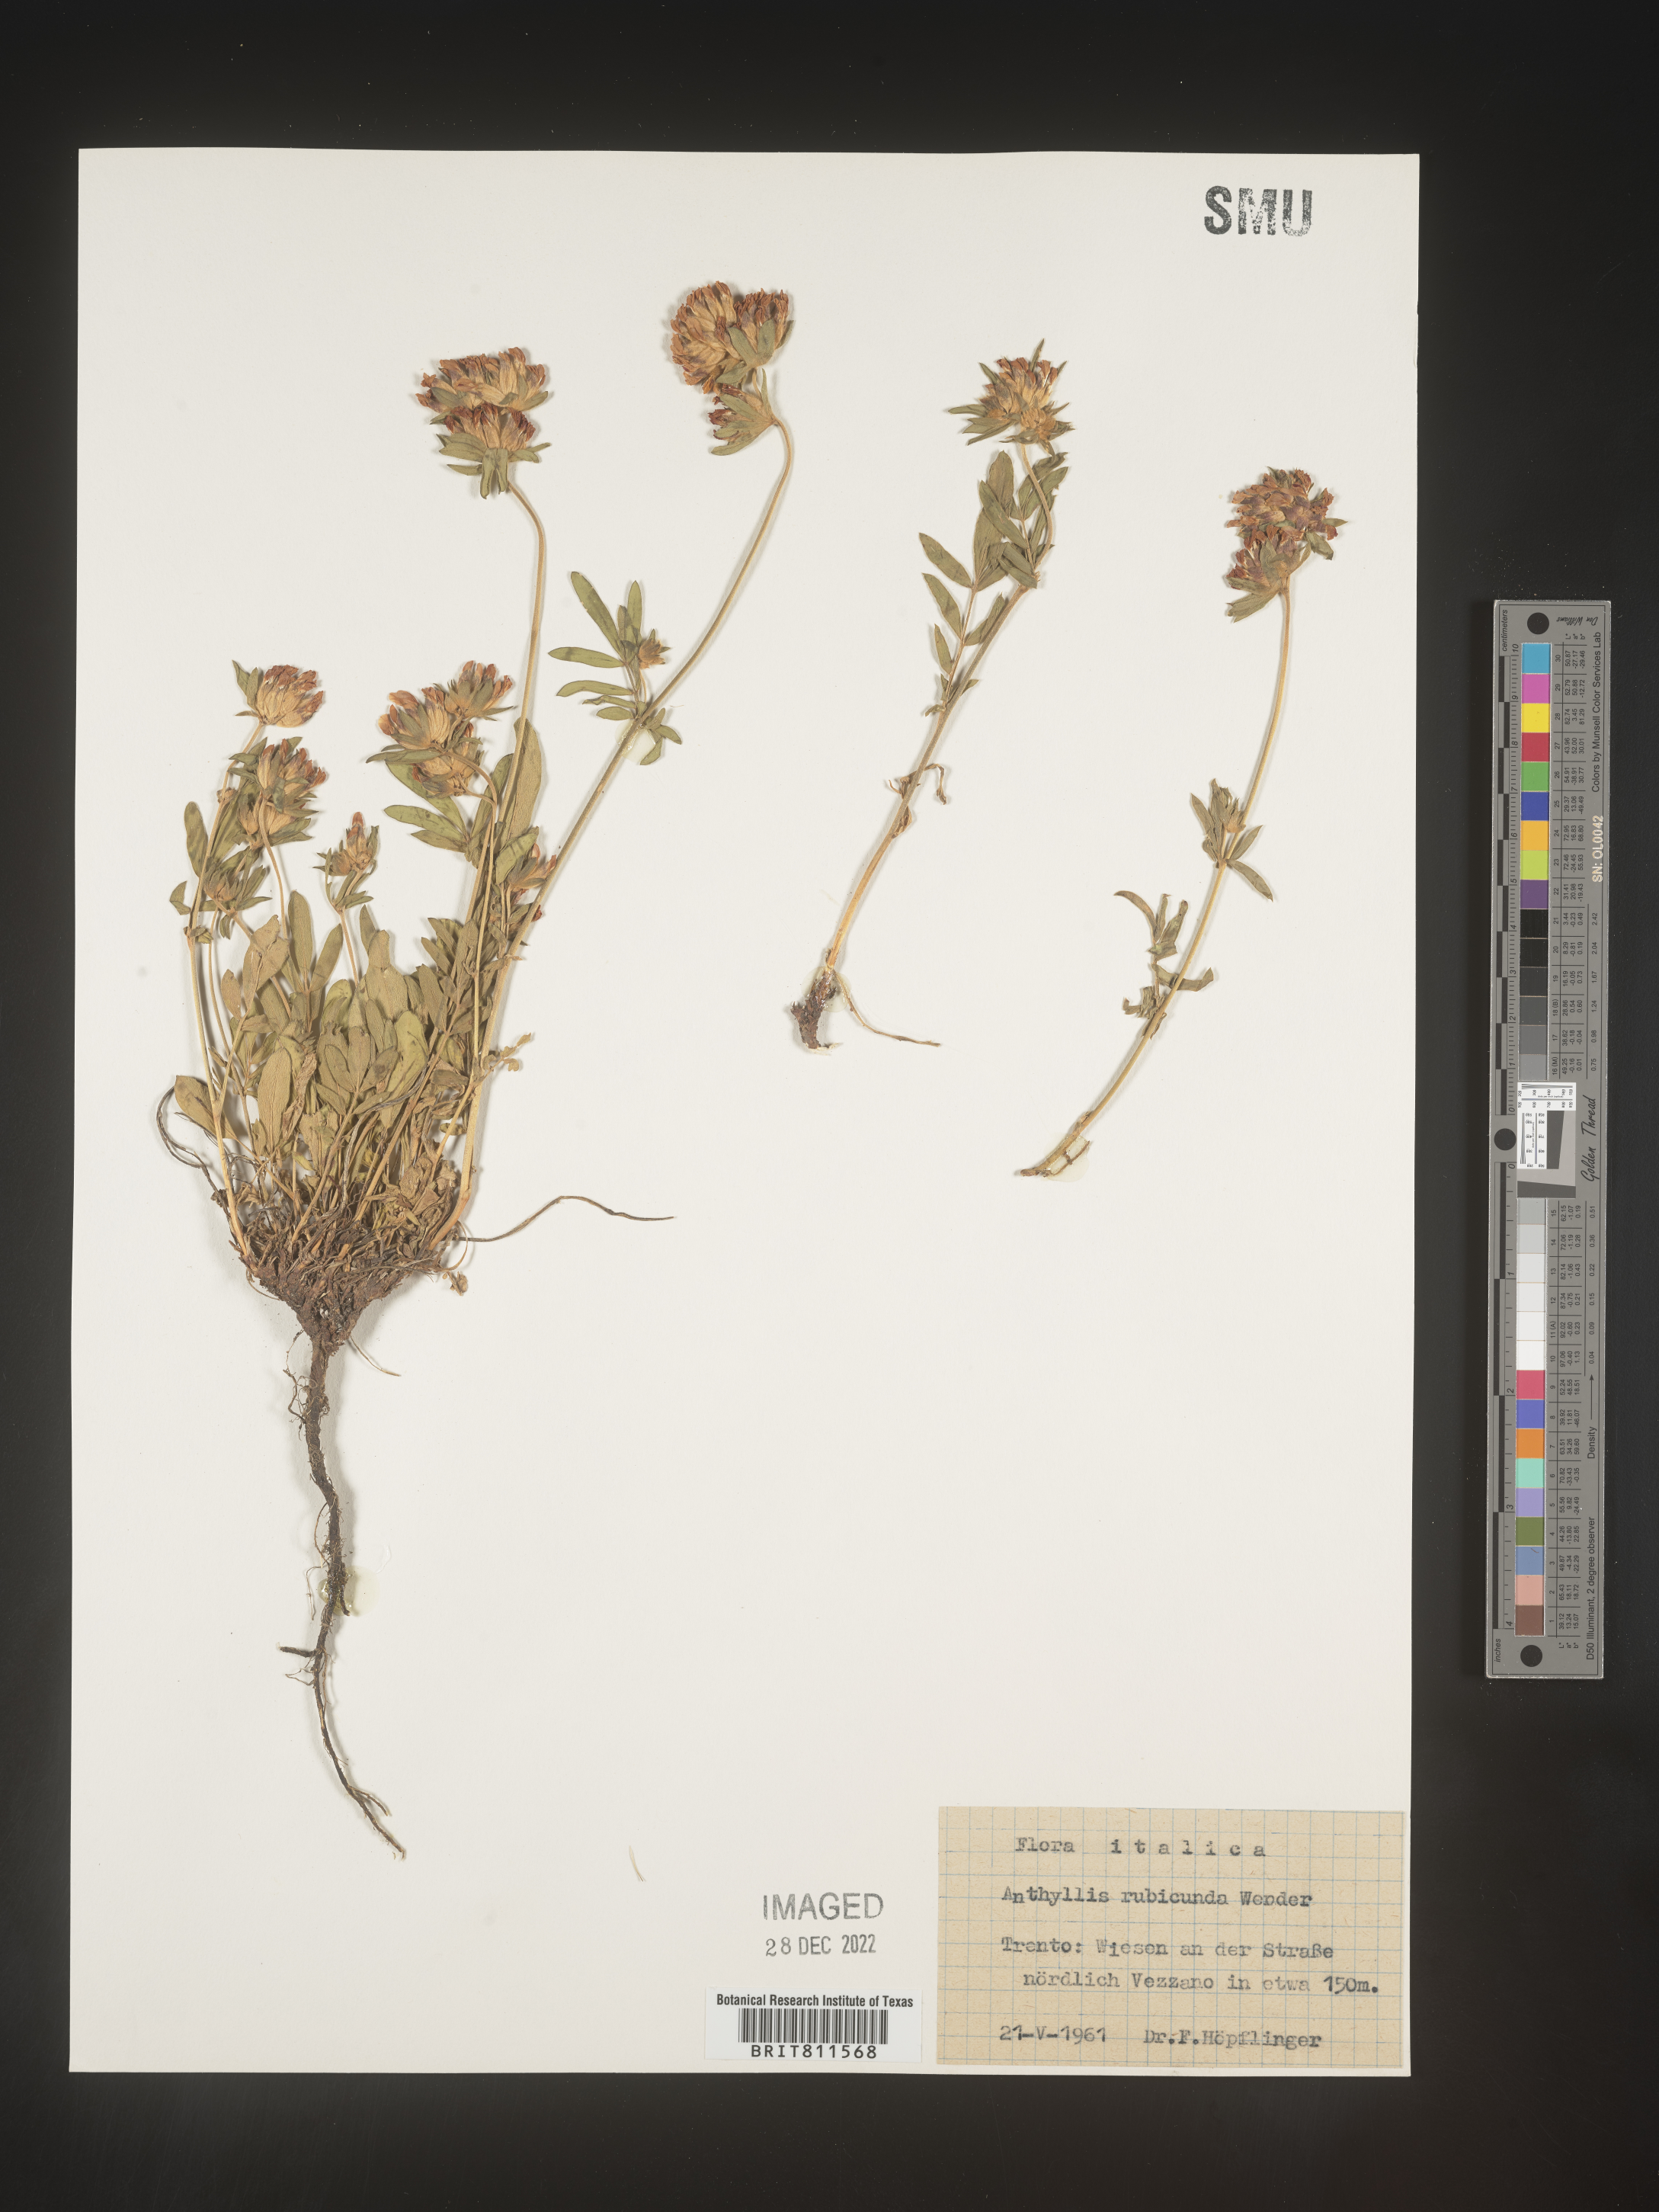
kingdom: Plantae
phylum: Tracheophyta
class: Magnoliopsida
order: Fabales
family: Fabaceae
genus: Anthyllis
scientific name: Anthyllis
